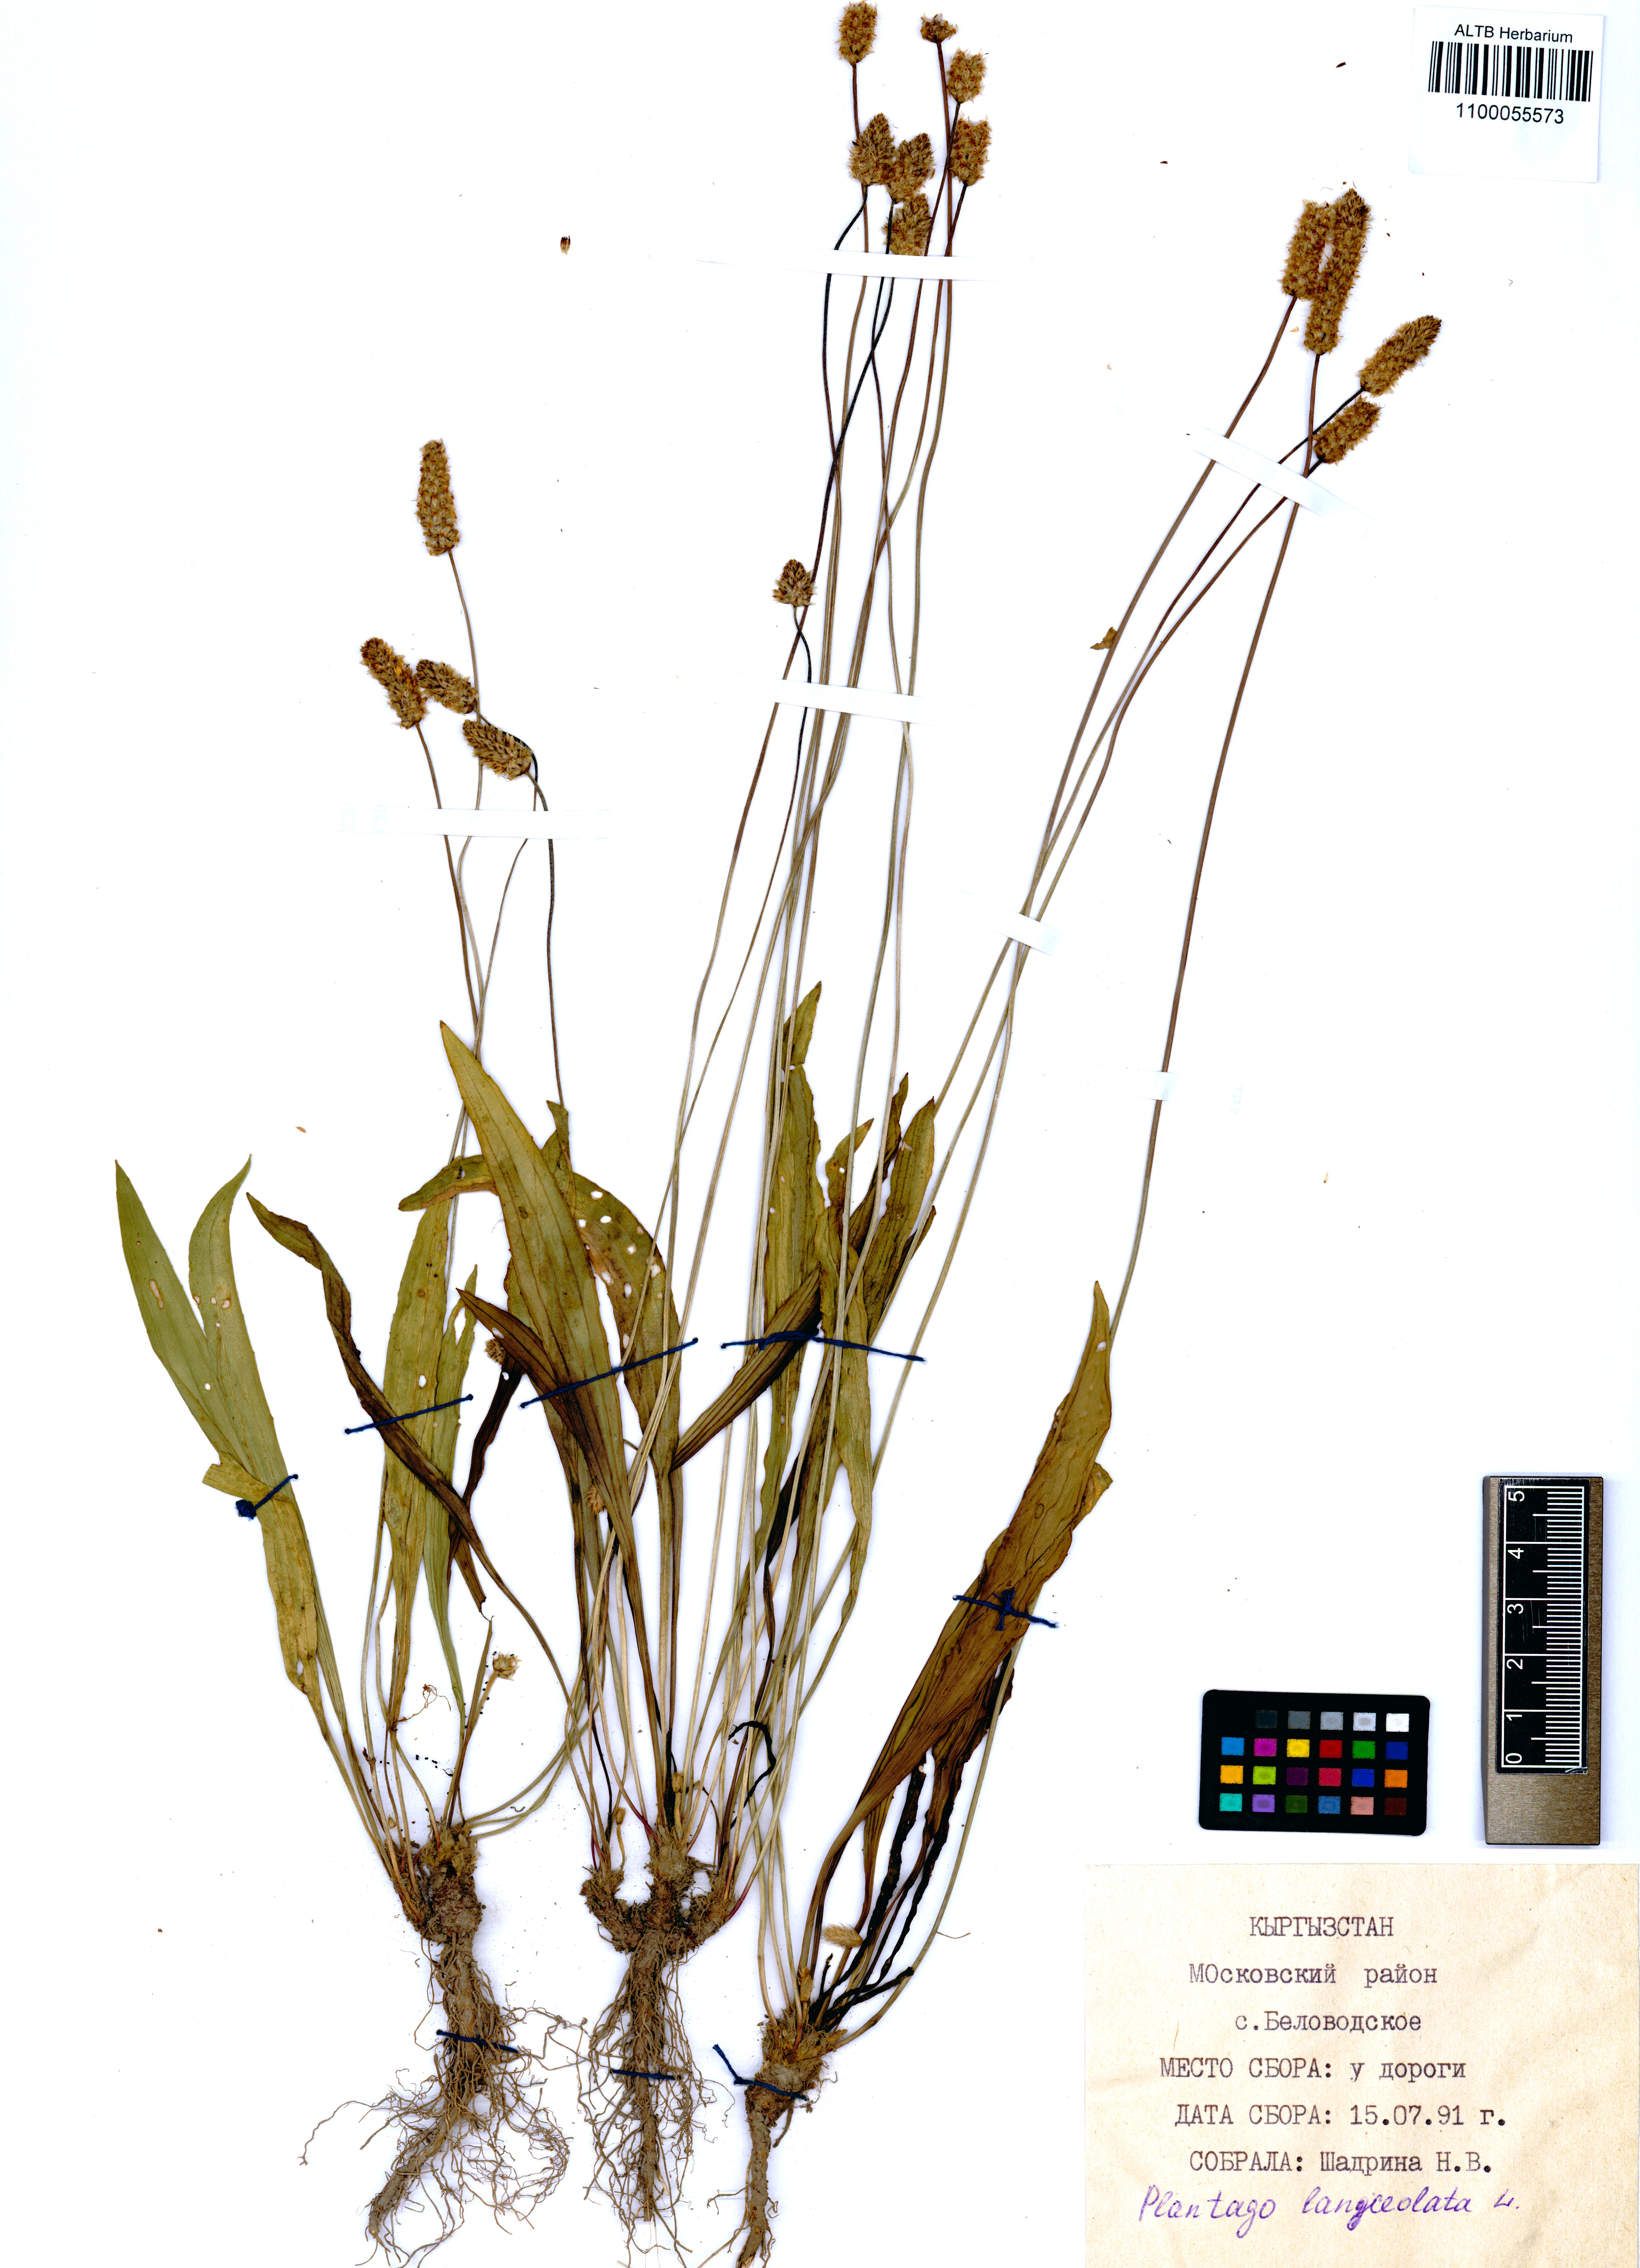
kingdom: Plantae
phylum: Tracheophyta
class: Magnoliopsida
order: Lamiales
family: Plantaginaceae
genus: Plantago
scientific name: Plantago lanceolata
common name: Ribwort plantain
